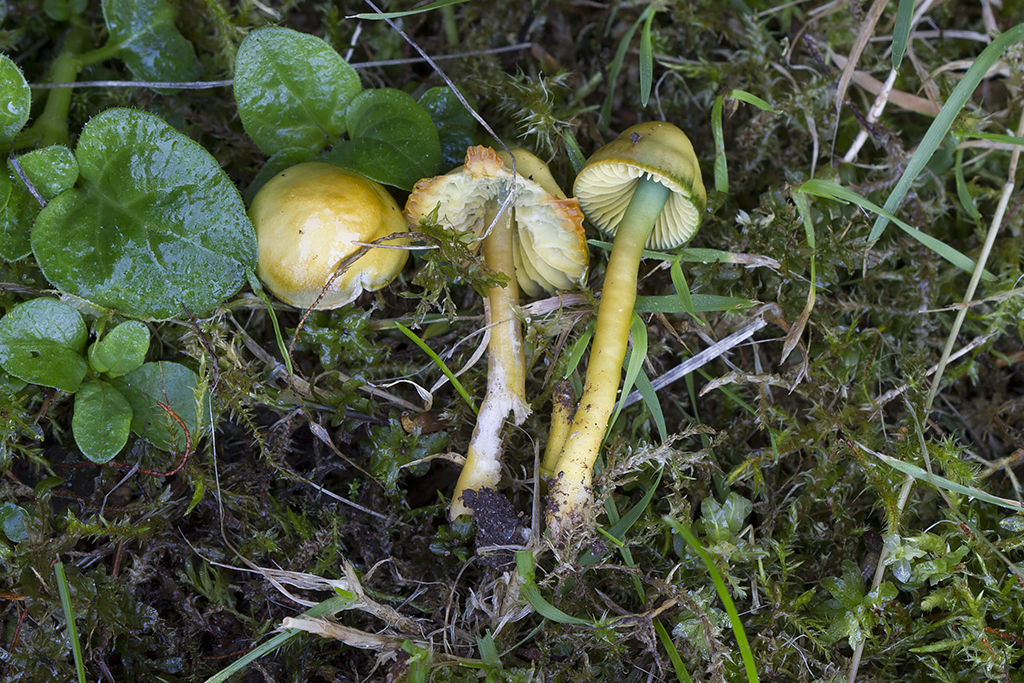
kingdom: Fungi
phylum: Basidiomycota
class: Agaricomycetes
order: Agaricales
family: Hygrophoraceae
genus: Gliophorus
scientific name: Gliophorus psittacinus
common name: papegøje-vokshat
